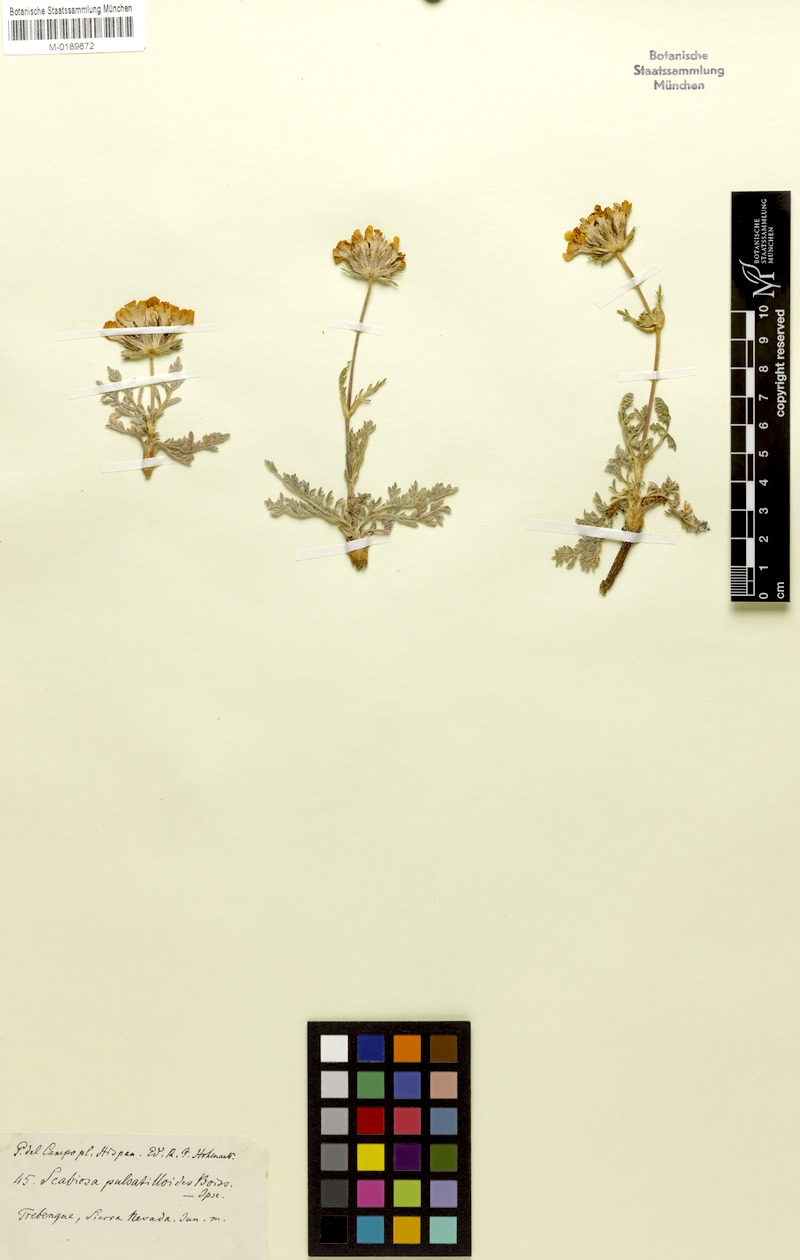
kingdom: Plantae
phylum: Tracheophyta
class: Magnoliopsida
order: Dipsacales
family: Caprifoliaceae
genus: Lomelosia
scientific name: Lomelosia pulsatilloides
